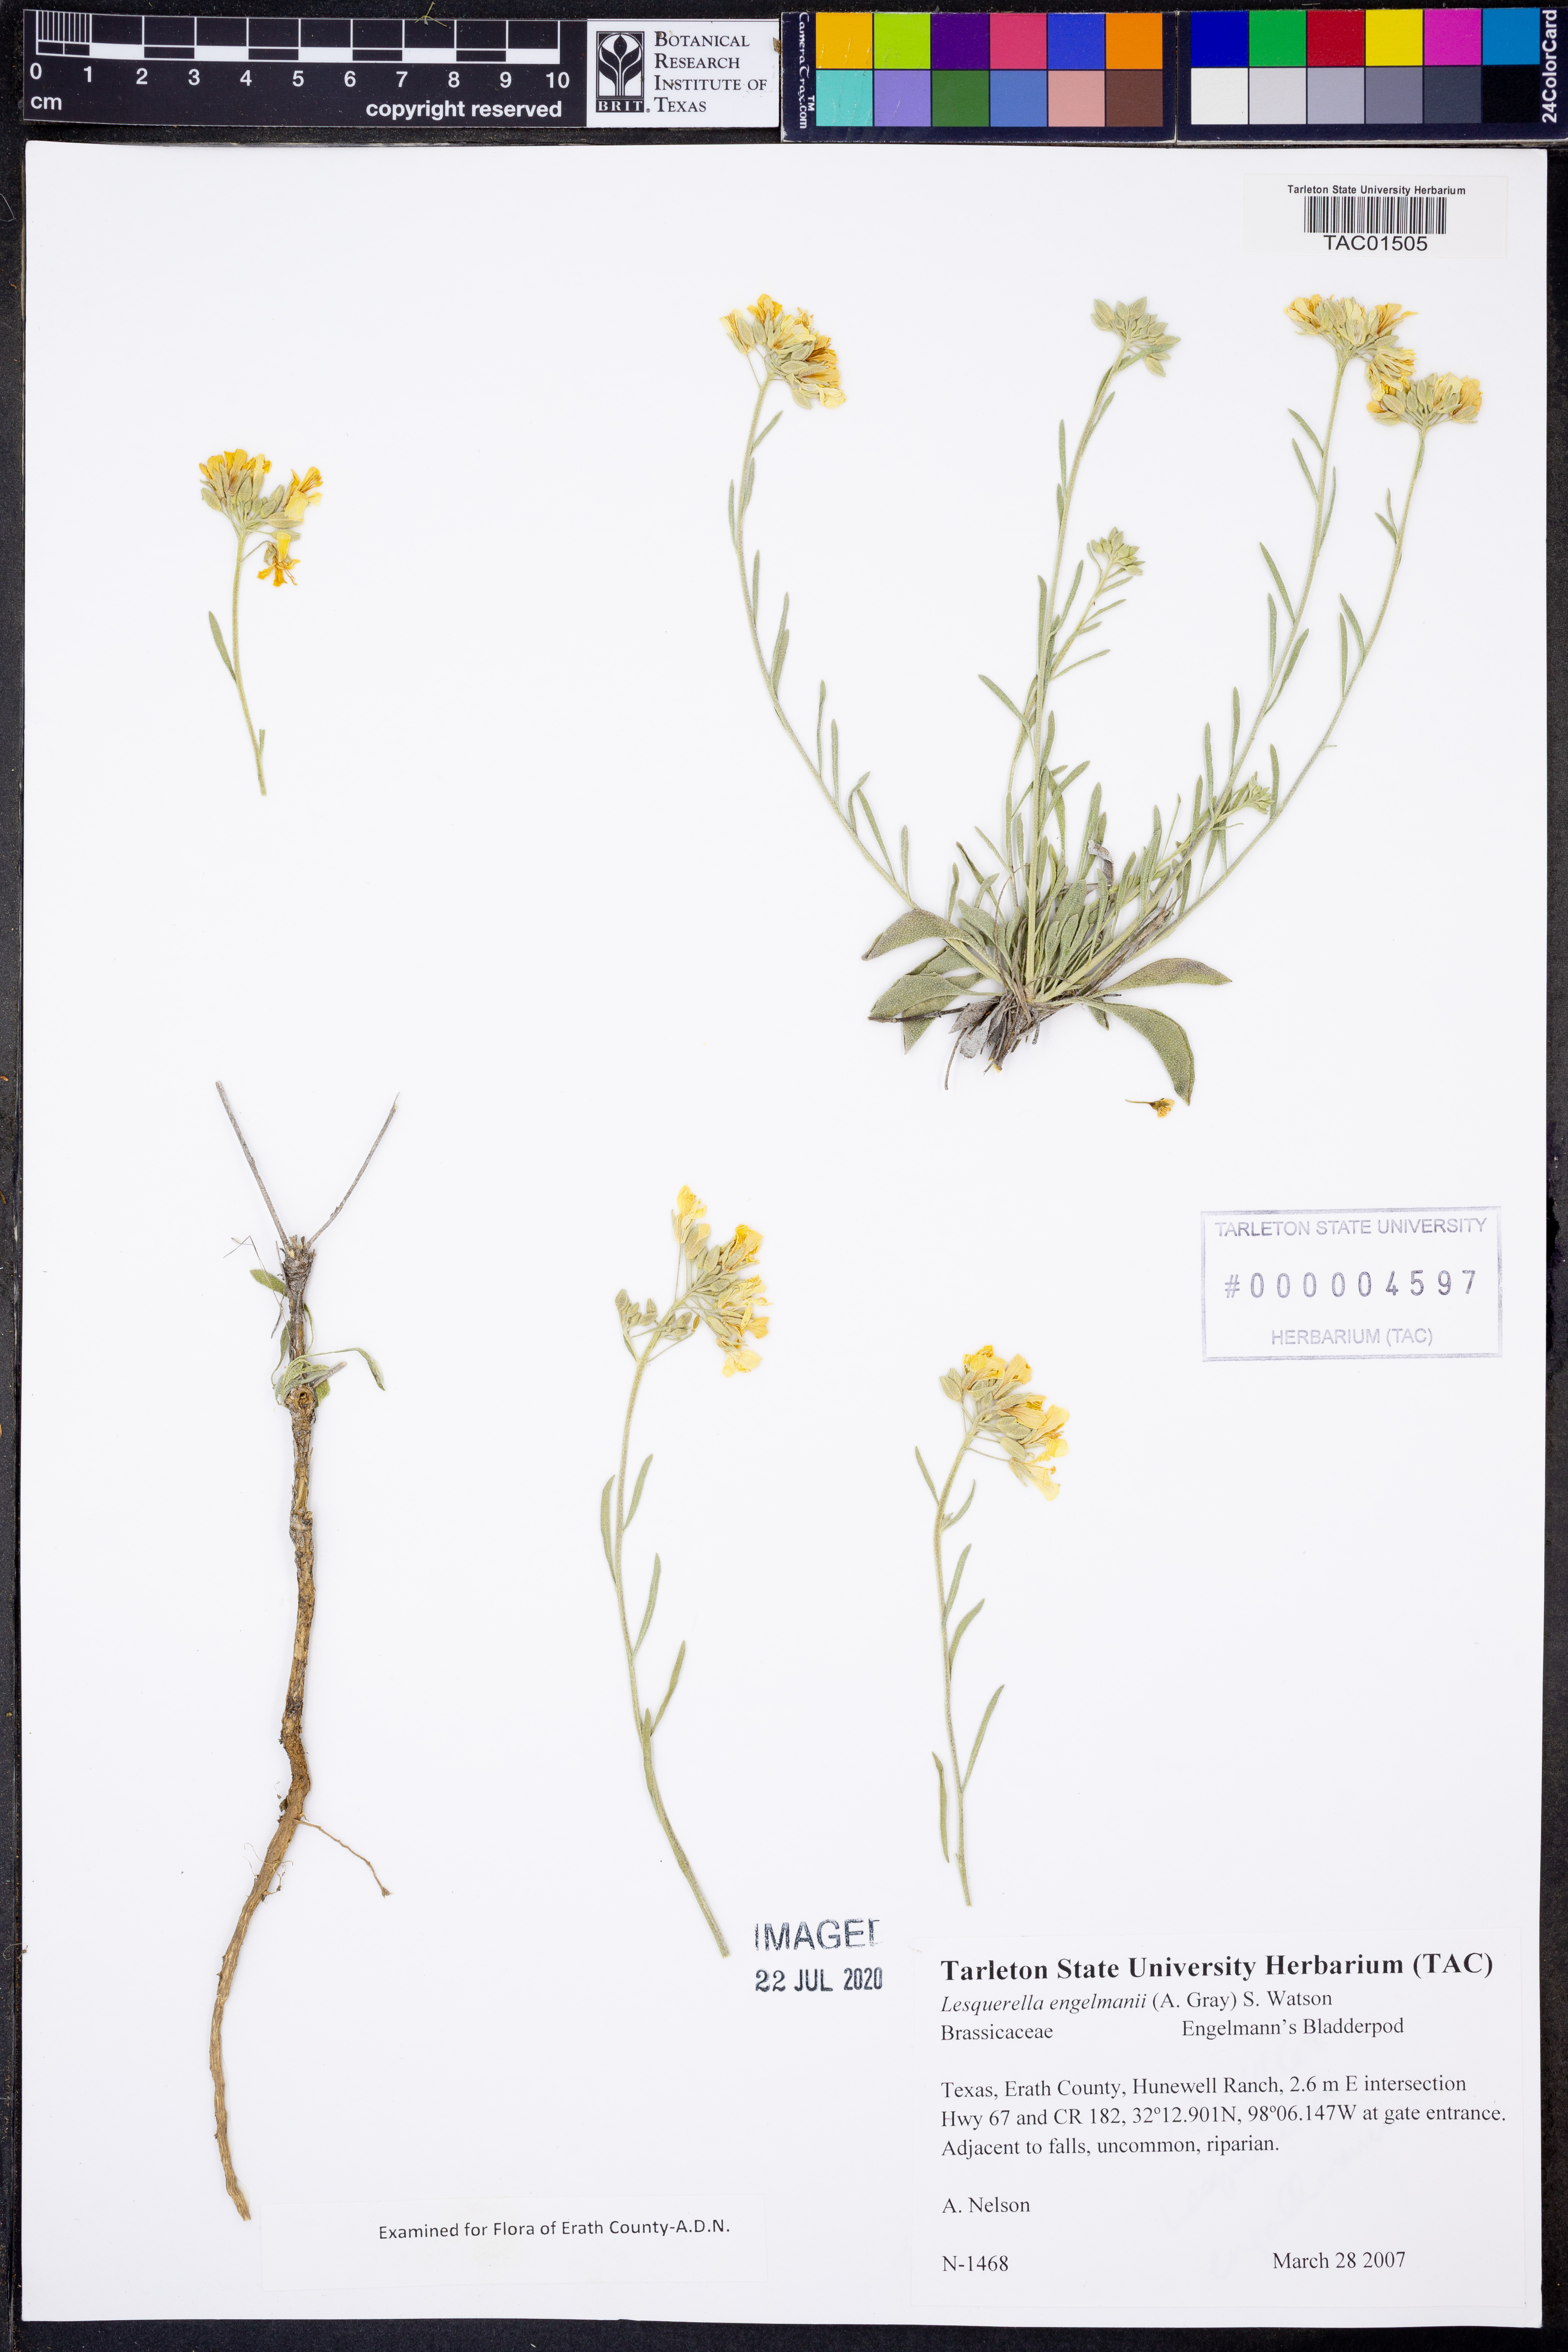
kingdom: Plantae
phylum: Tracheophyta
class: Magnoliopsida
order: Brassicales
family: Brassicaceae
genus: Physaria
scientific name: Physaria engelmannii
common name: Engelmann's bladderpod
